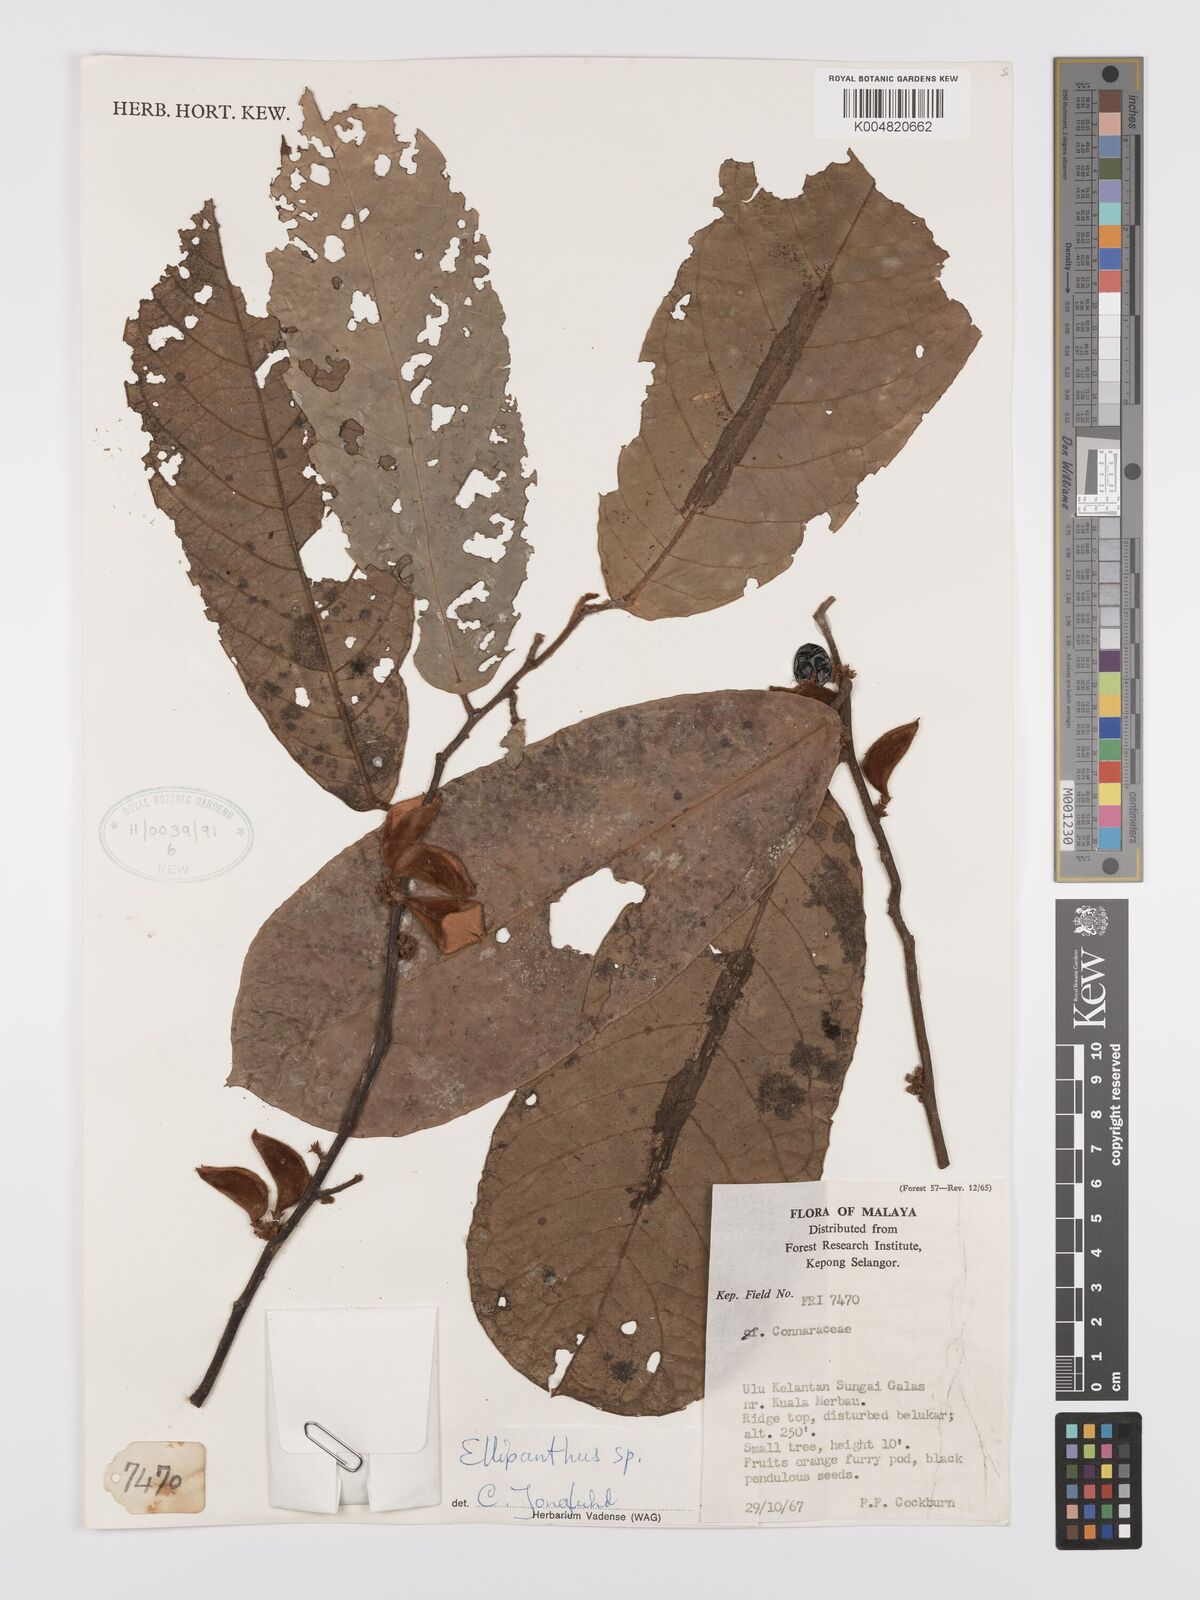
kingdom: Plantae
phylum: Tracheophyta
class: Magnoliopsida
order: Oxalidales
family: Connaraceae
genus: Ellipanthus
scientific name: Ellipanthus
